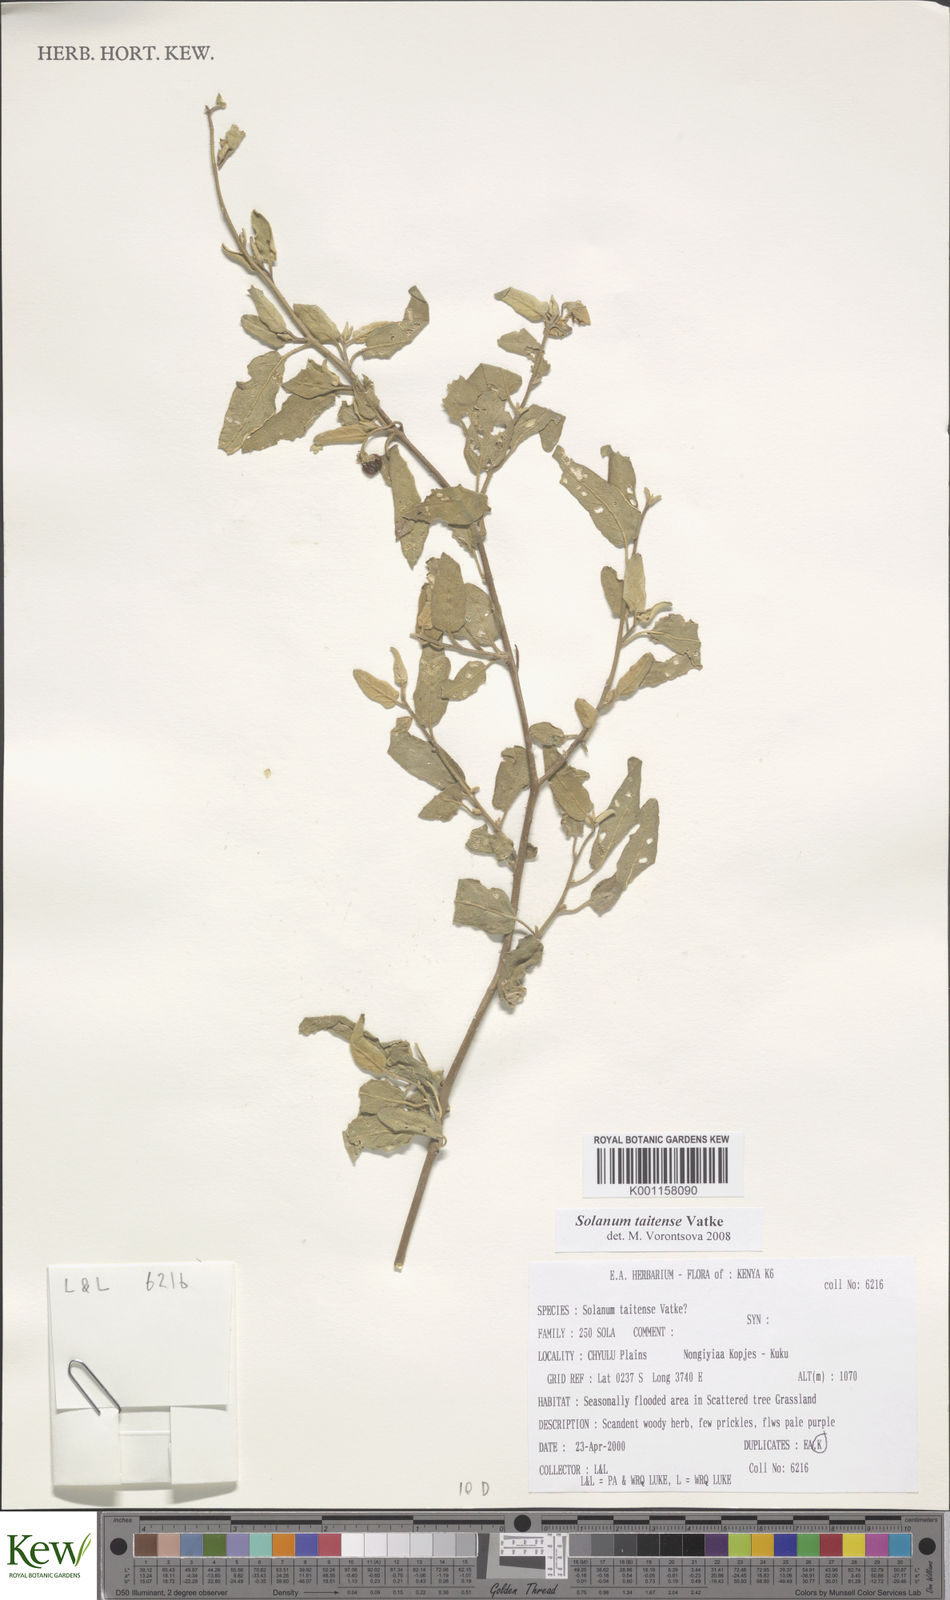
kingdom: Plantae
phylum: Tracheophyta
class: Magnoliopsida
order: Solanales
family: Solanaceae
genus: Solanum
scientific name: Solanum taitense
